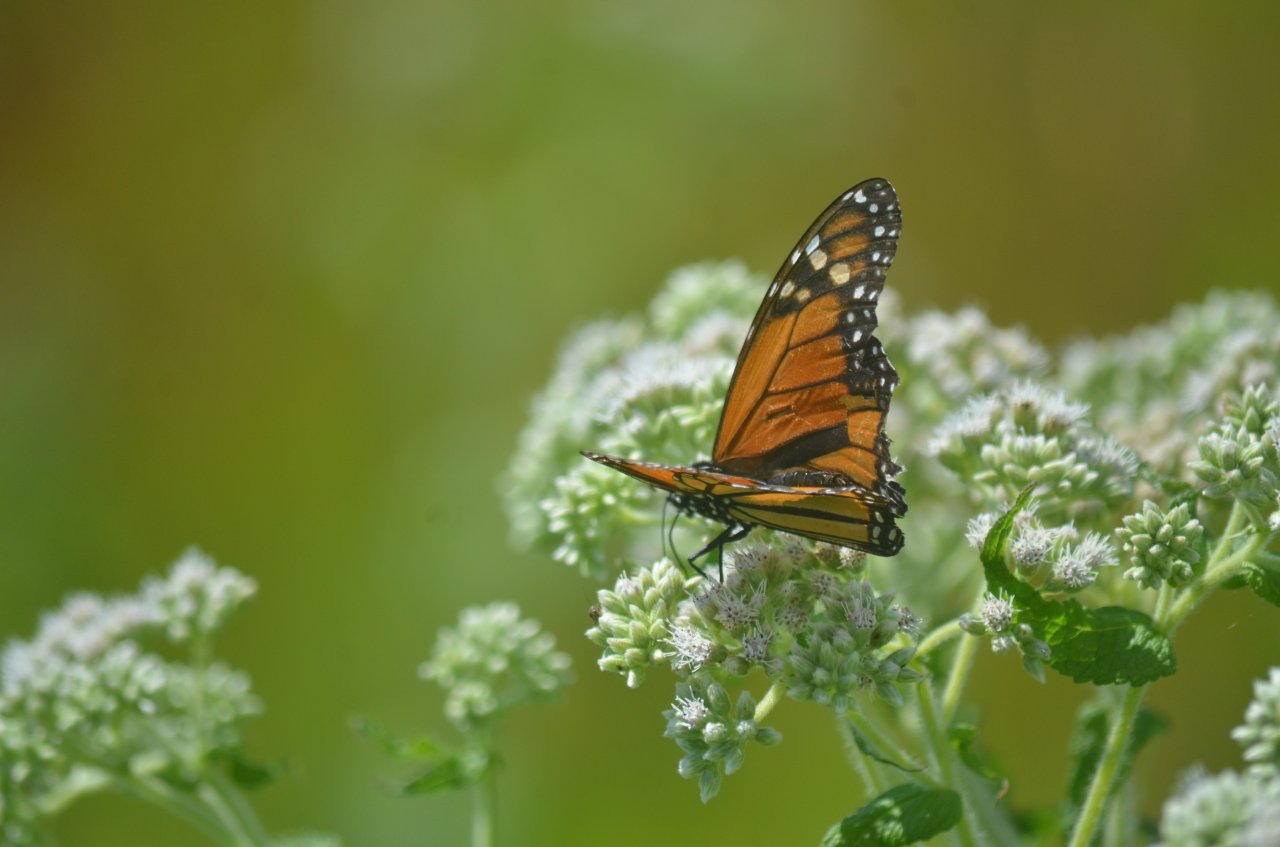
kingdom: Animalia
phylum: Arthropoda
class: Insecta
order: Lepidoptera
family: Nymphalidae
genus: Danaus
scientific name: Danaus plexippus
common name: Monarch
